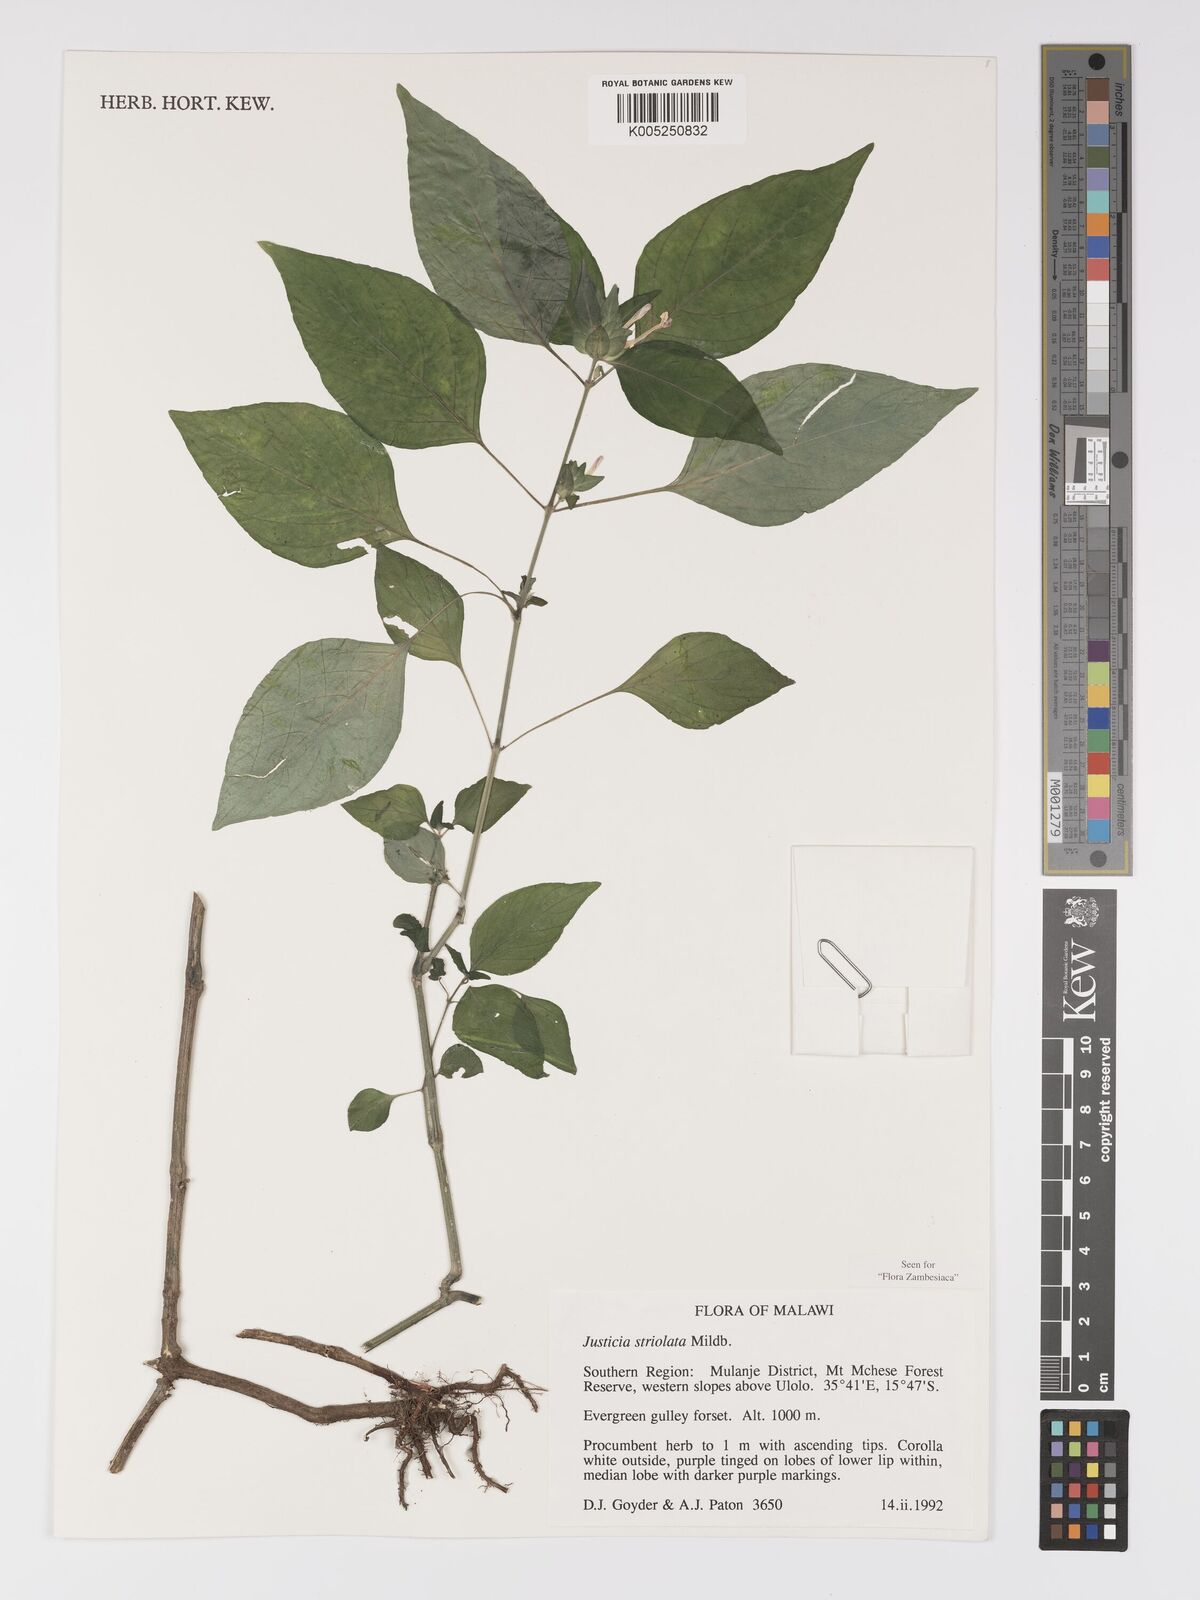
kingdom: Plantae
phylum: Tracheophyta
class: Magnoliopsida
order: Lamiales
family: Acanthaceae
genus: Justicia
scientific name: Justicia striolata
